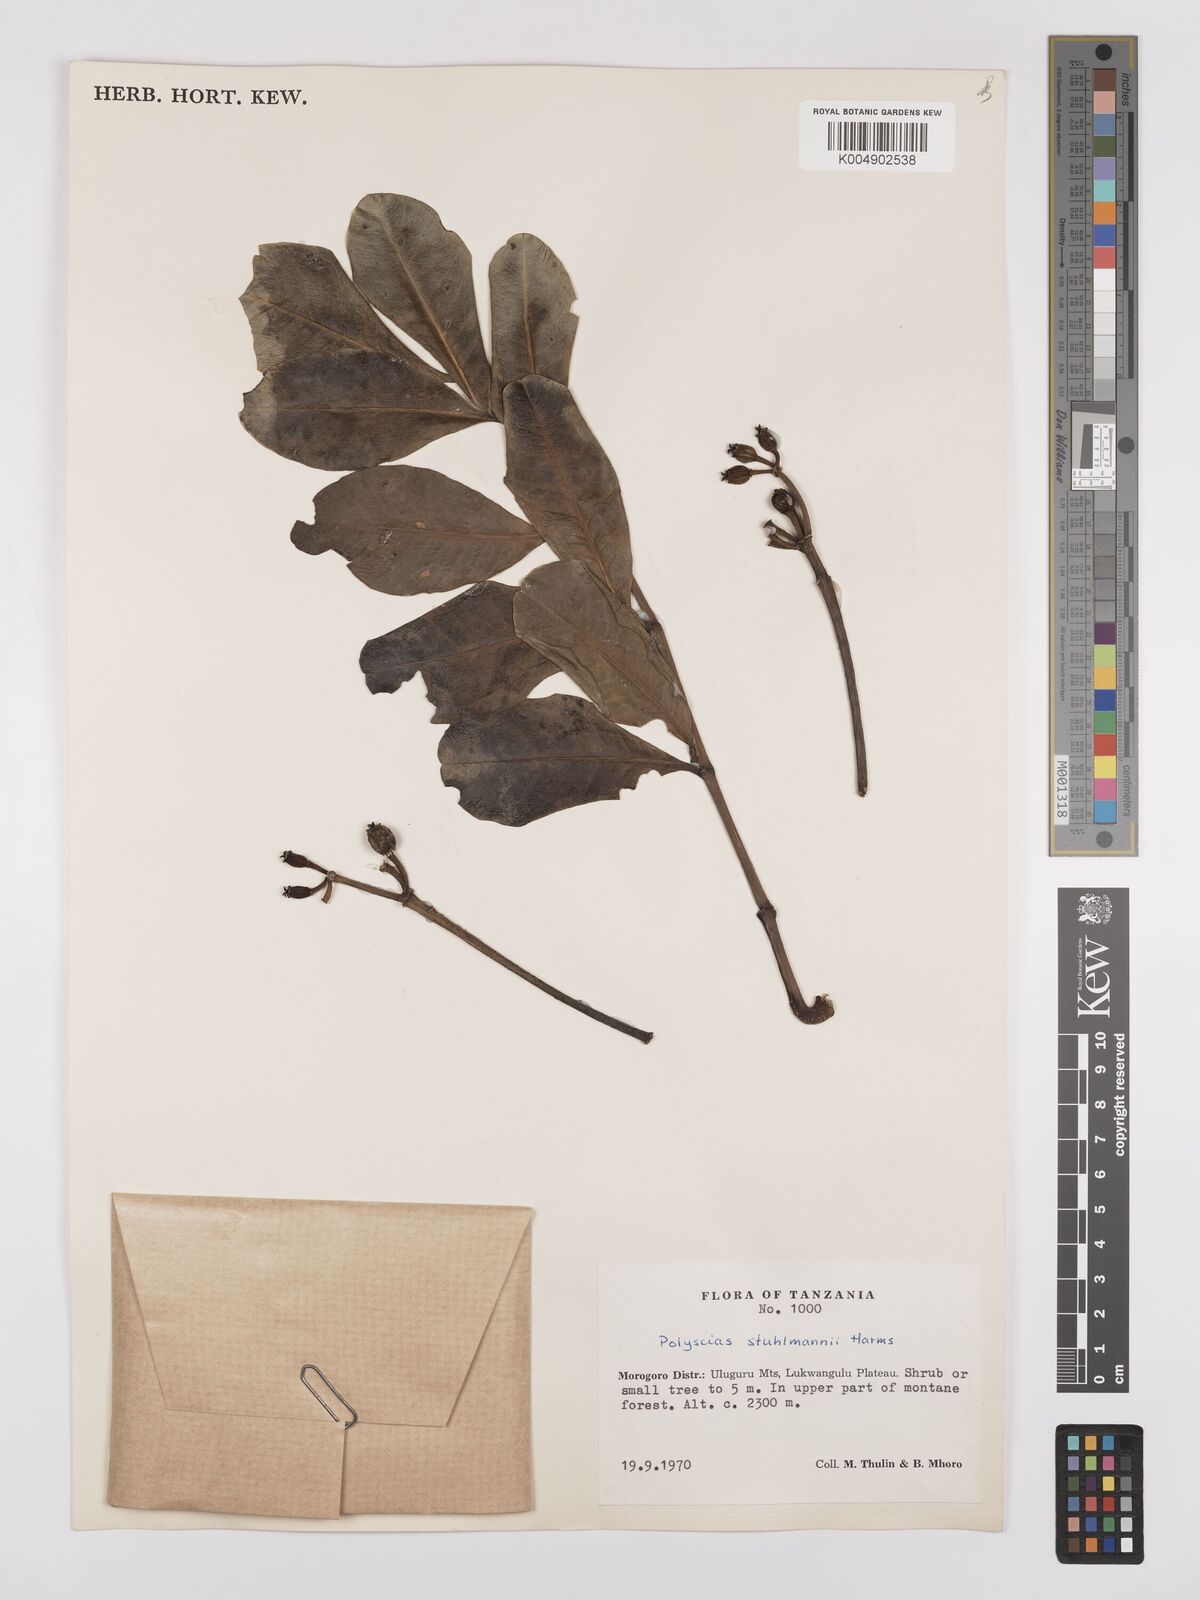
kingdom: Plantae
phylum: Tracheophyta
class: Magnoliopsida
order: Apiales
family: Araliaceae
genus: Polyscias
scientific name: Polyscias stuhlmannii
